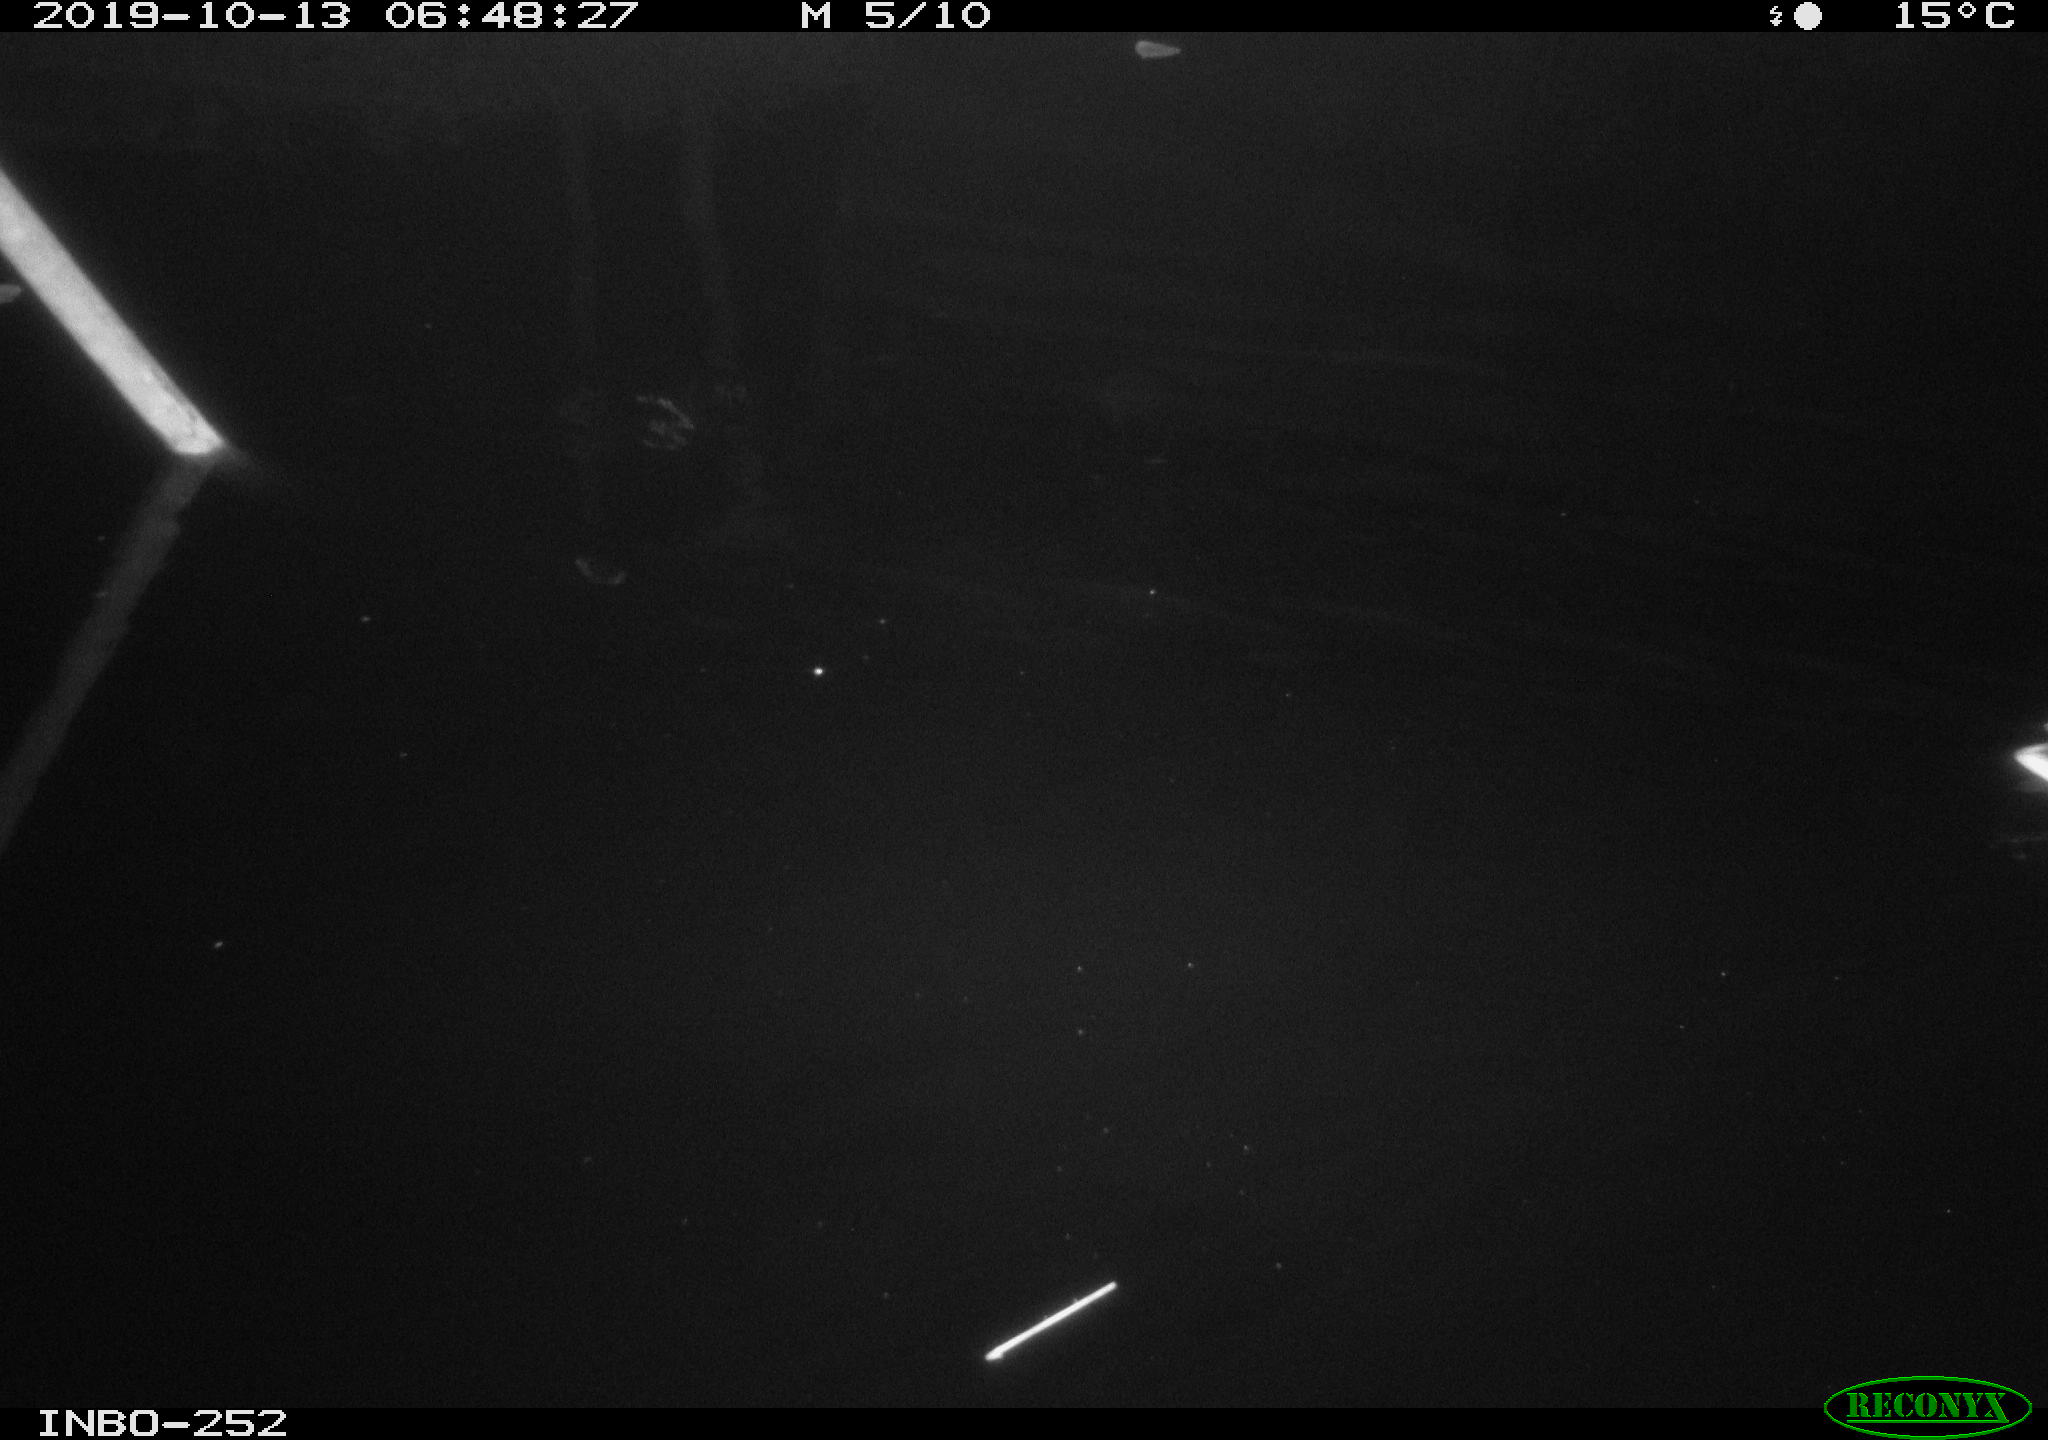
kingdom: Animalia
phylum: Chordata
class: Aves
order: Anseriformes
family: Anatidae
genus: Anas
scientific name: Anas platyrhynchos
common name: Mallard
